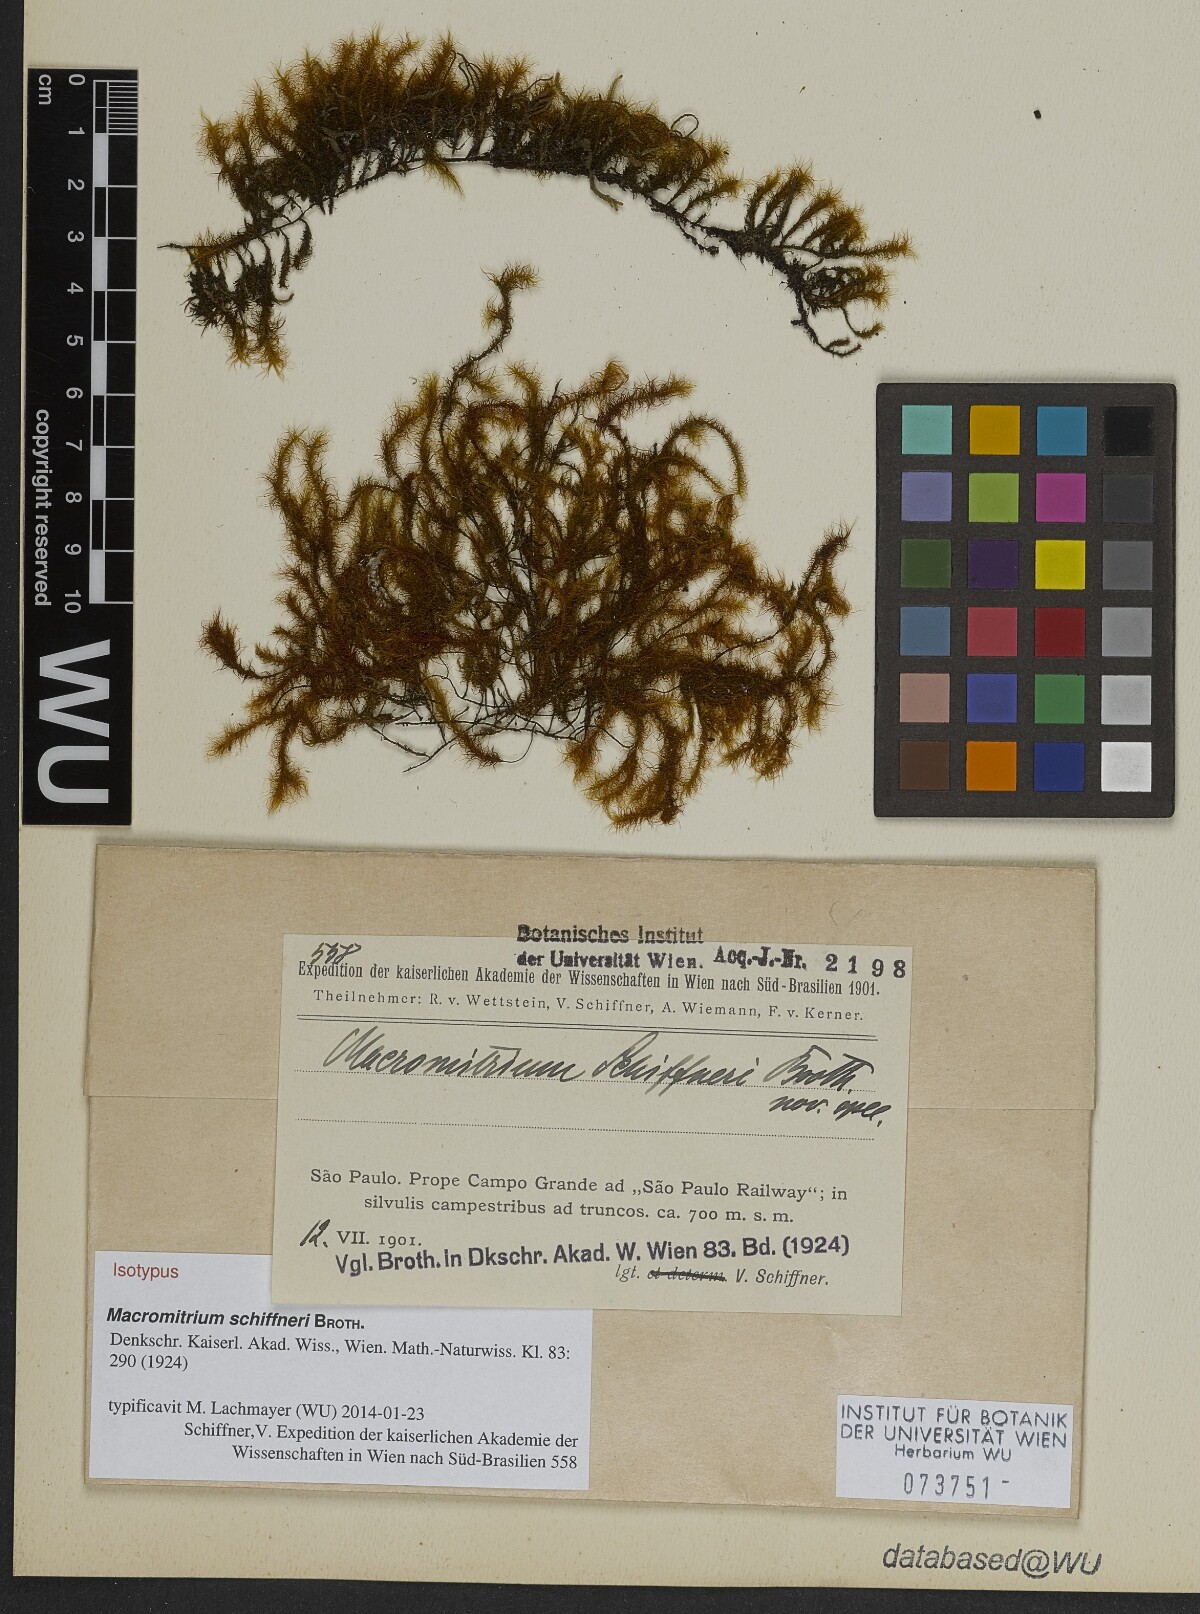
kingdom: Plantae
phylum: Bryophyta
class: Bryopsida
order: Orthotrichales
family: Orthotrichaceae
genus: Macromitrium
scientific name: Macromitrium catharinense
